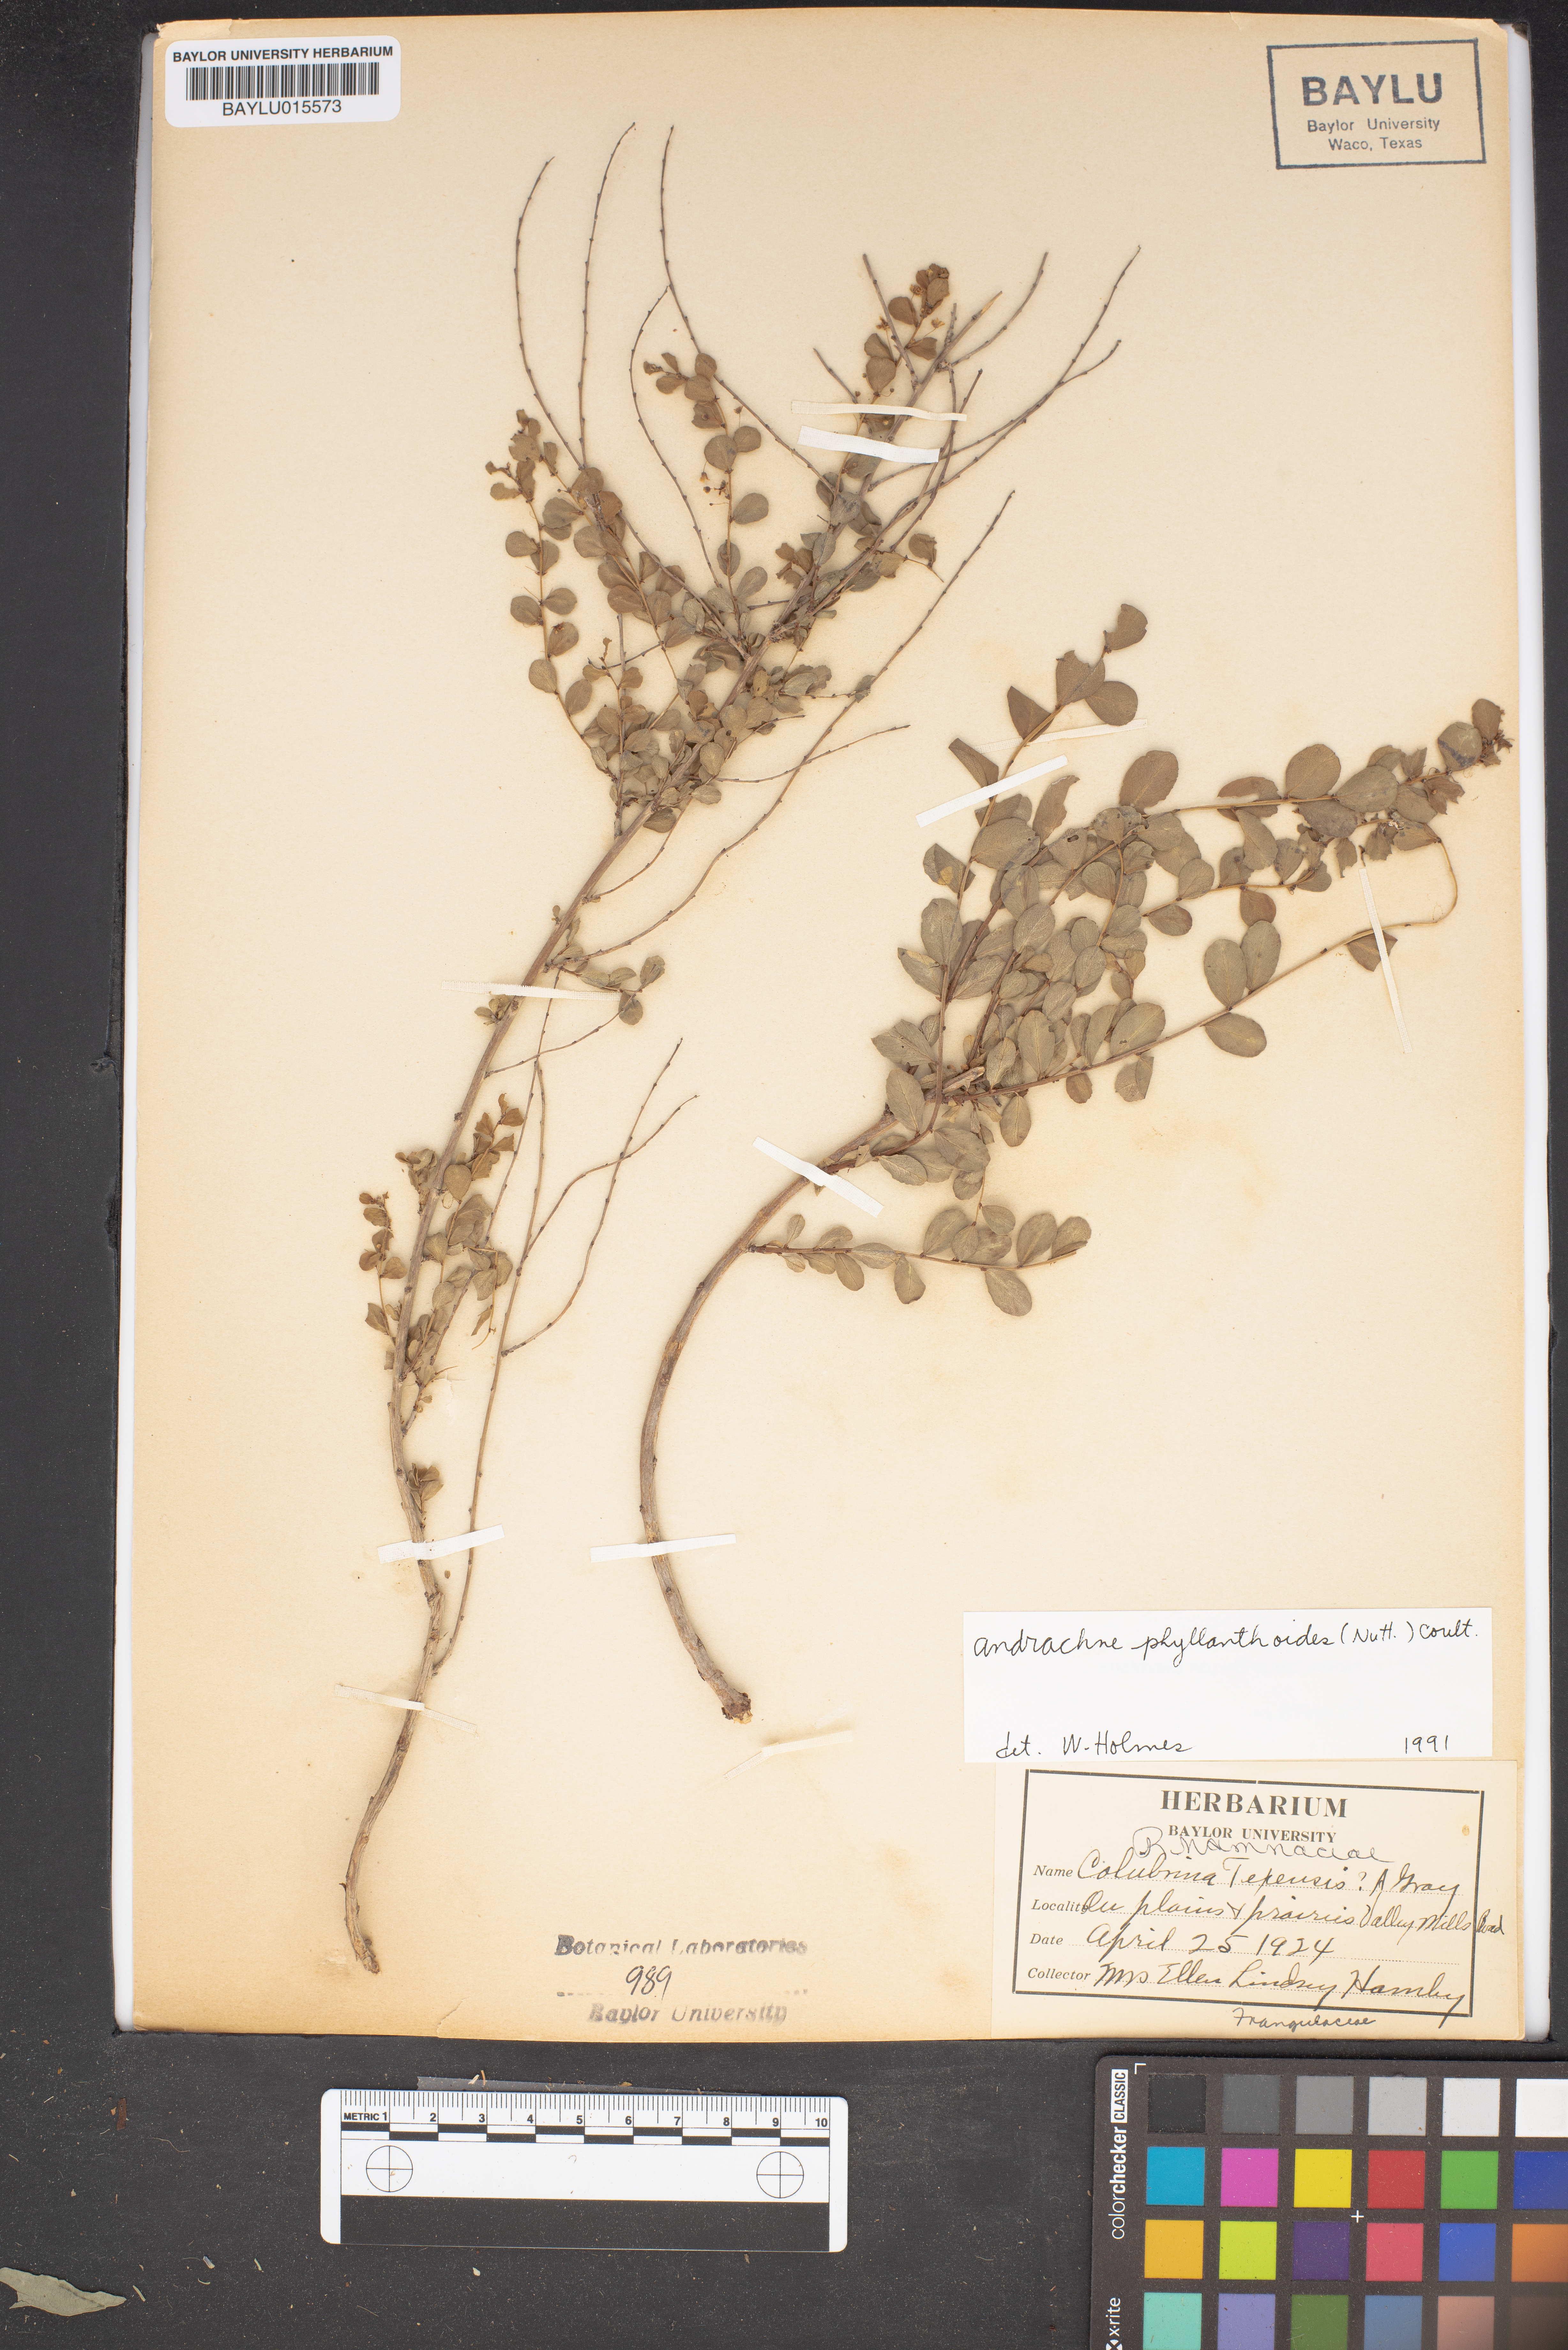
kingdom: Plantae
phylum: Tracheophyta
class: Magnoliopsida
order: Rosales
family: Rhamnaceae
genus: Colubrina
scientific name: Colubrina texensis
